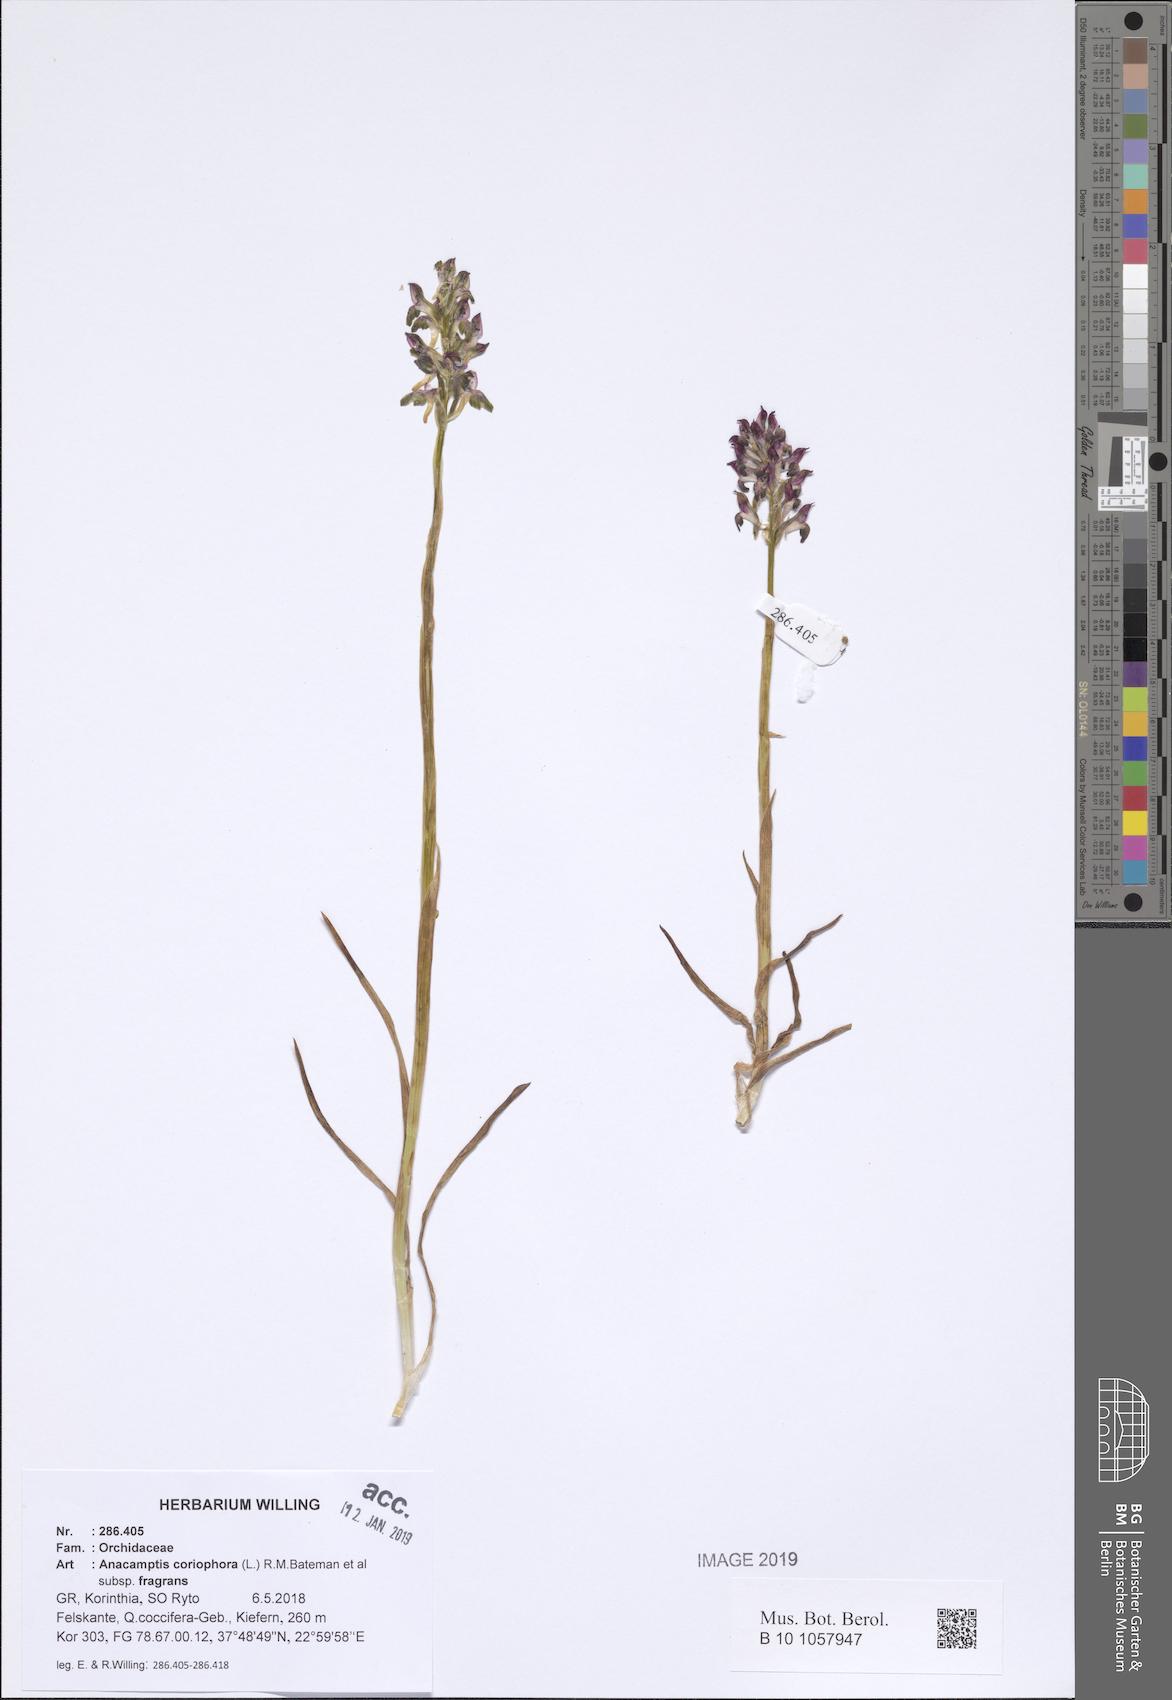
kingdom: Plantae
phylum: Tracheophyta
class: Liliopsida
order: Asparagales
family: Orchidaceae
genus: Anacamptis
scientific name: Anacamptis coriophora
